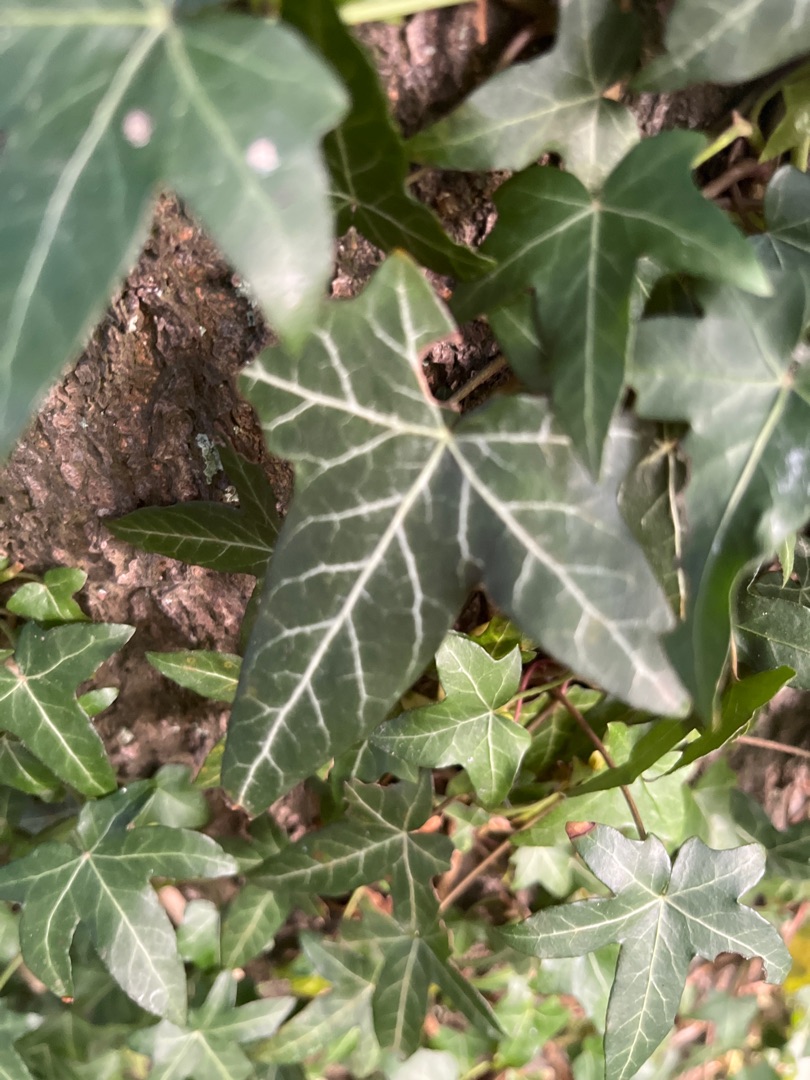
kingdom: Plantae
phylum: Tracheophyta
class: Magnoliopsida
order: Apiales
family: Araliaceae
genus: Hedera
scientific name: Hedera helix
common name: Vedbend
